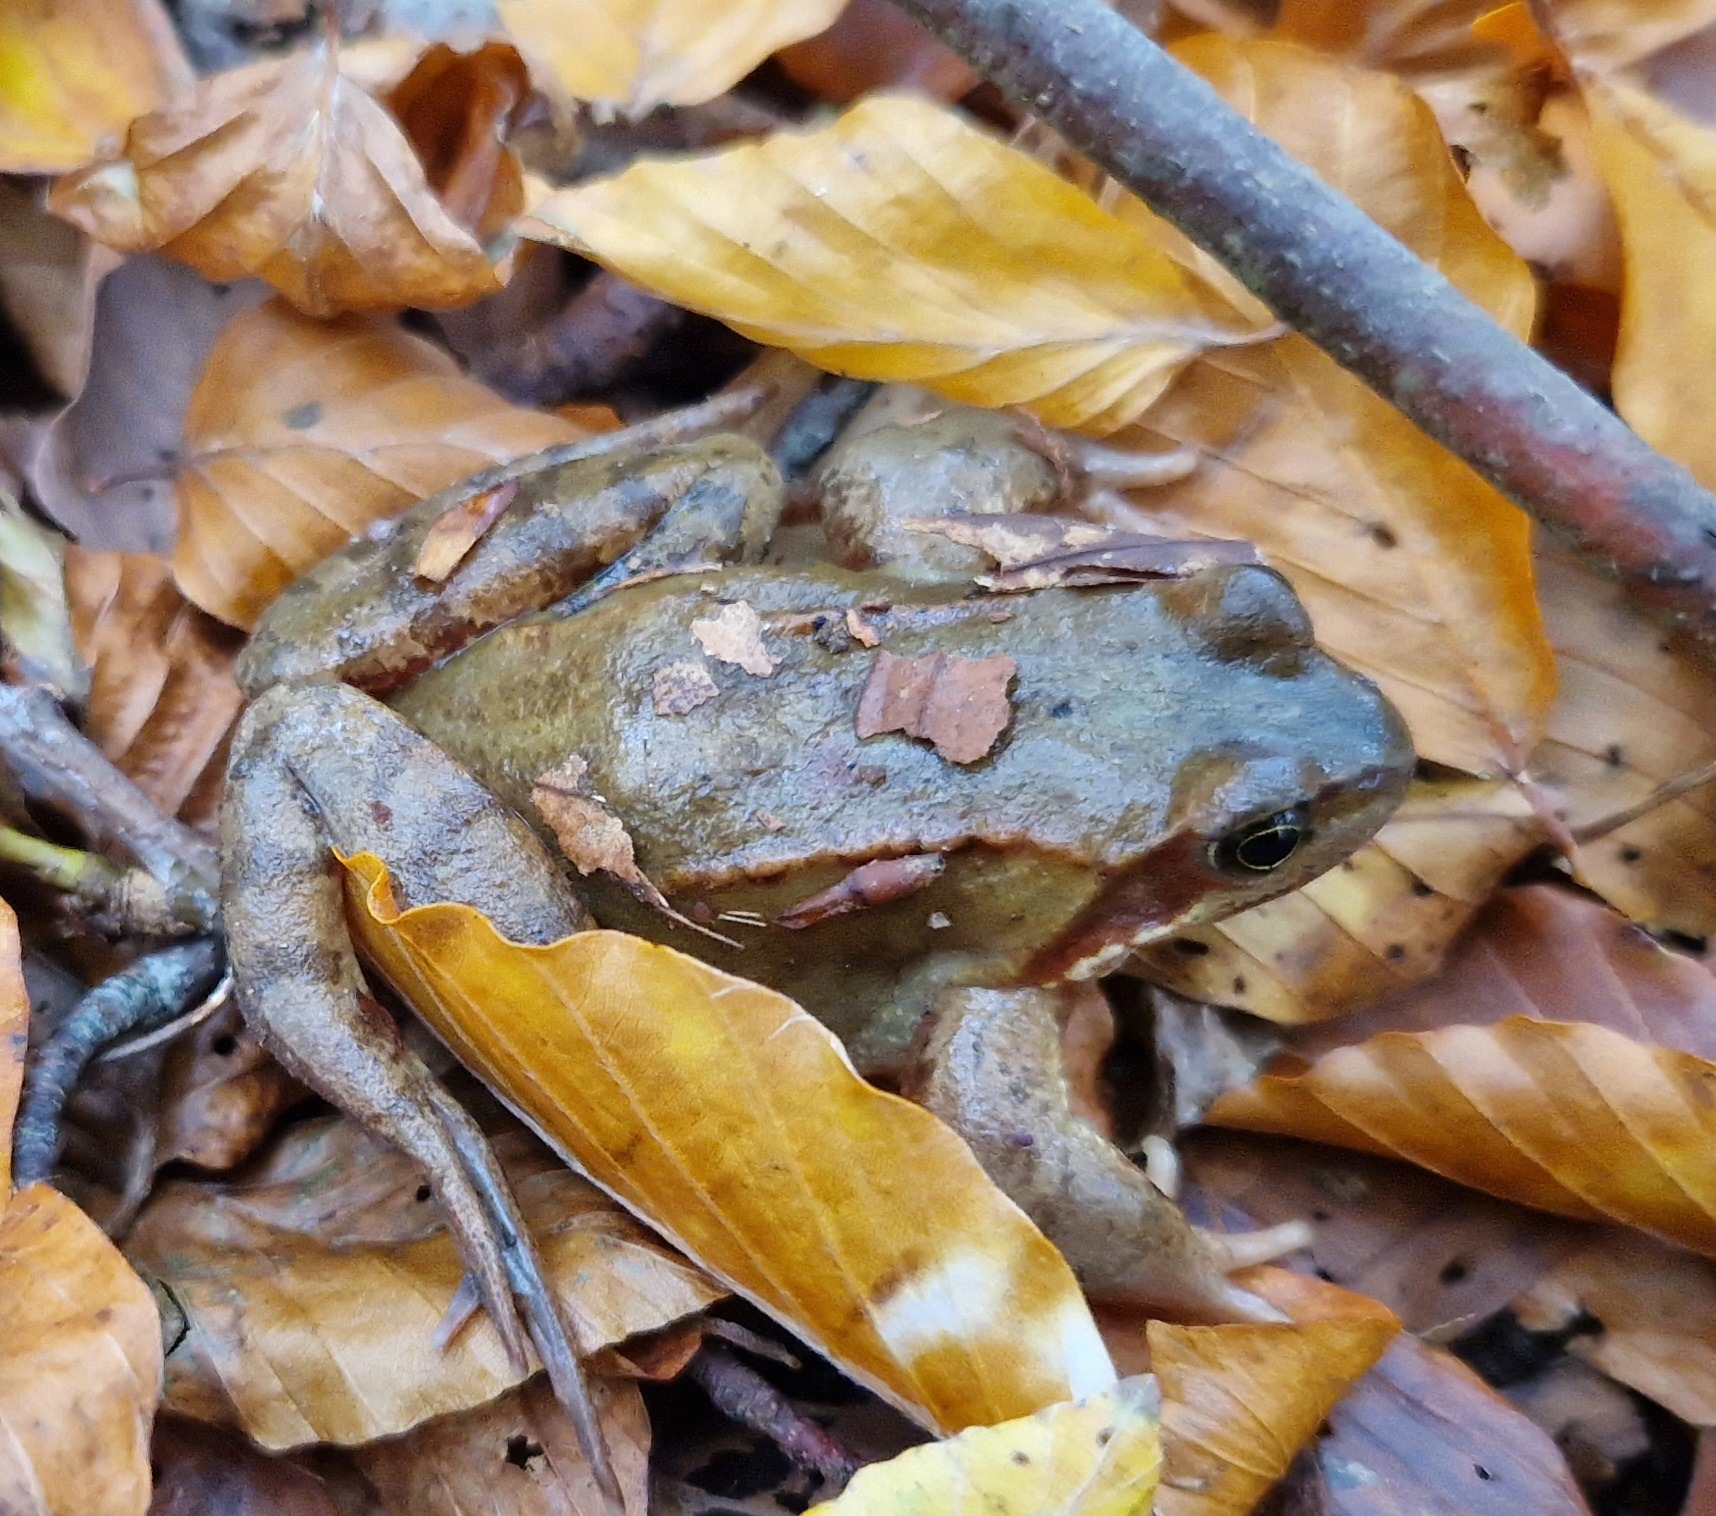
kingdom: Animalia
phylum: Chordata
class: Amphibia
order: Anura
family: Ranidae
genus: Rana
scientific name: Rana temporaria
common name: Butsnudet frø
